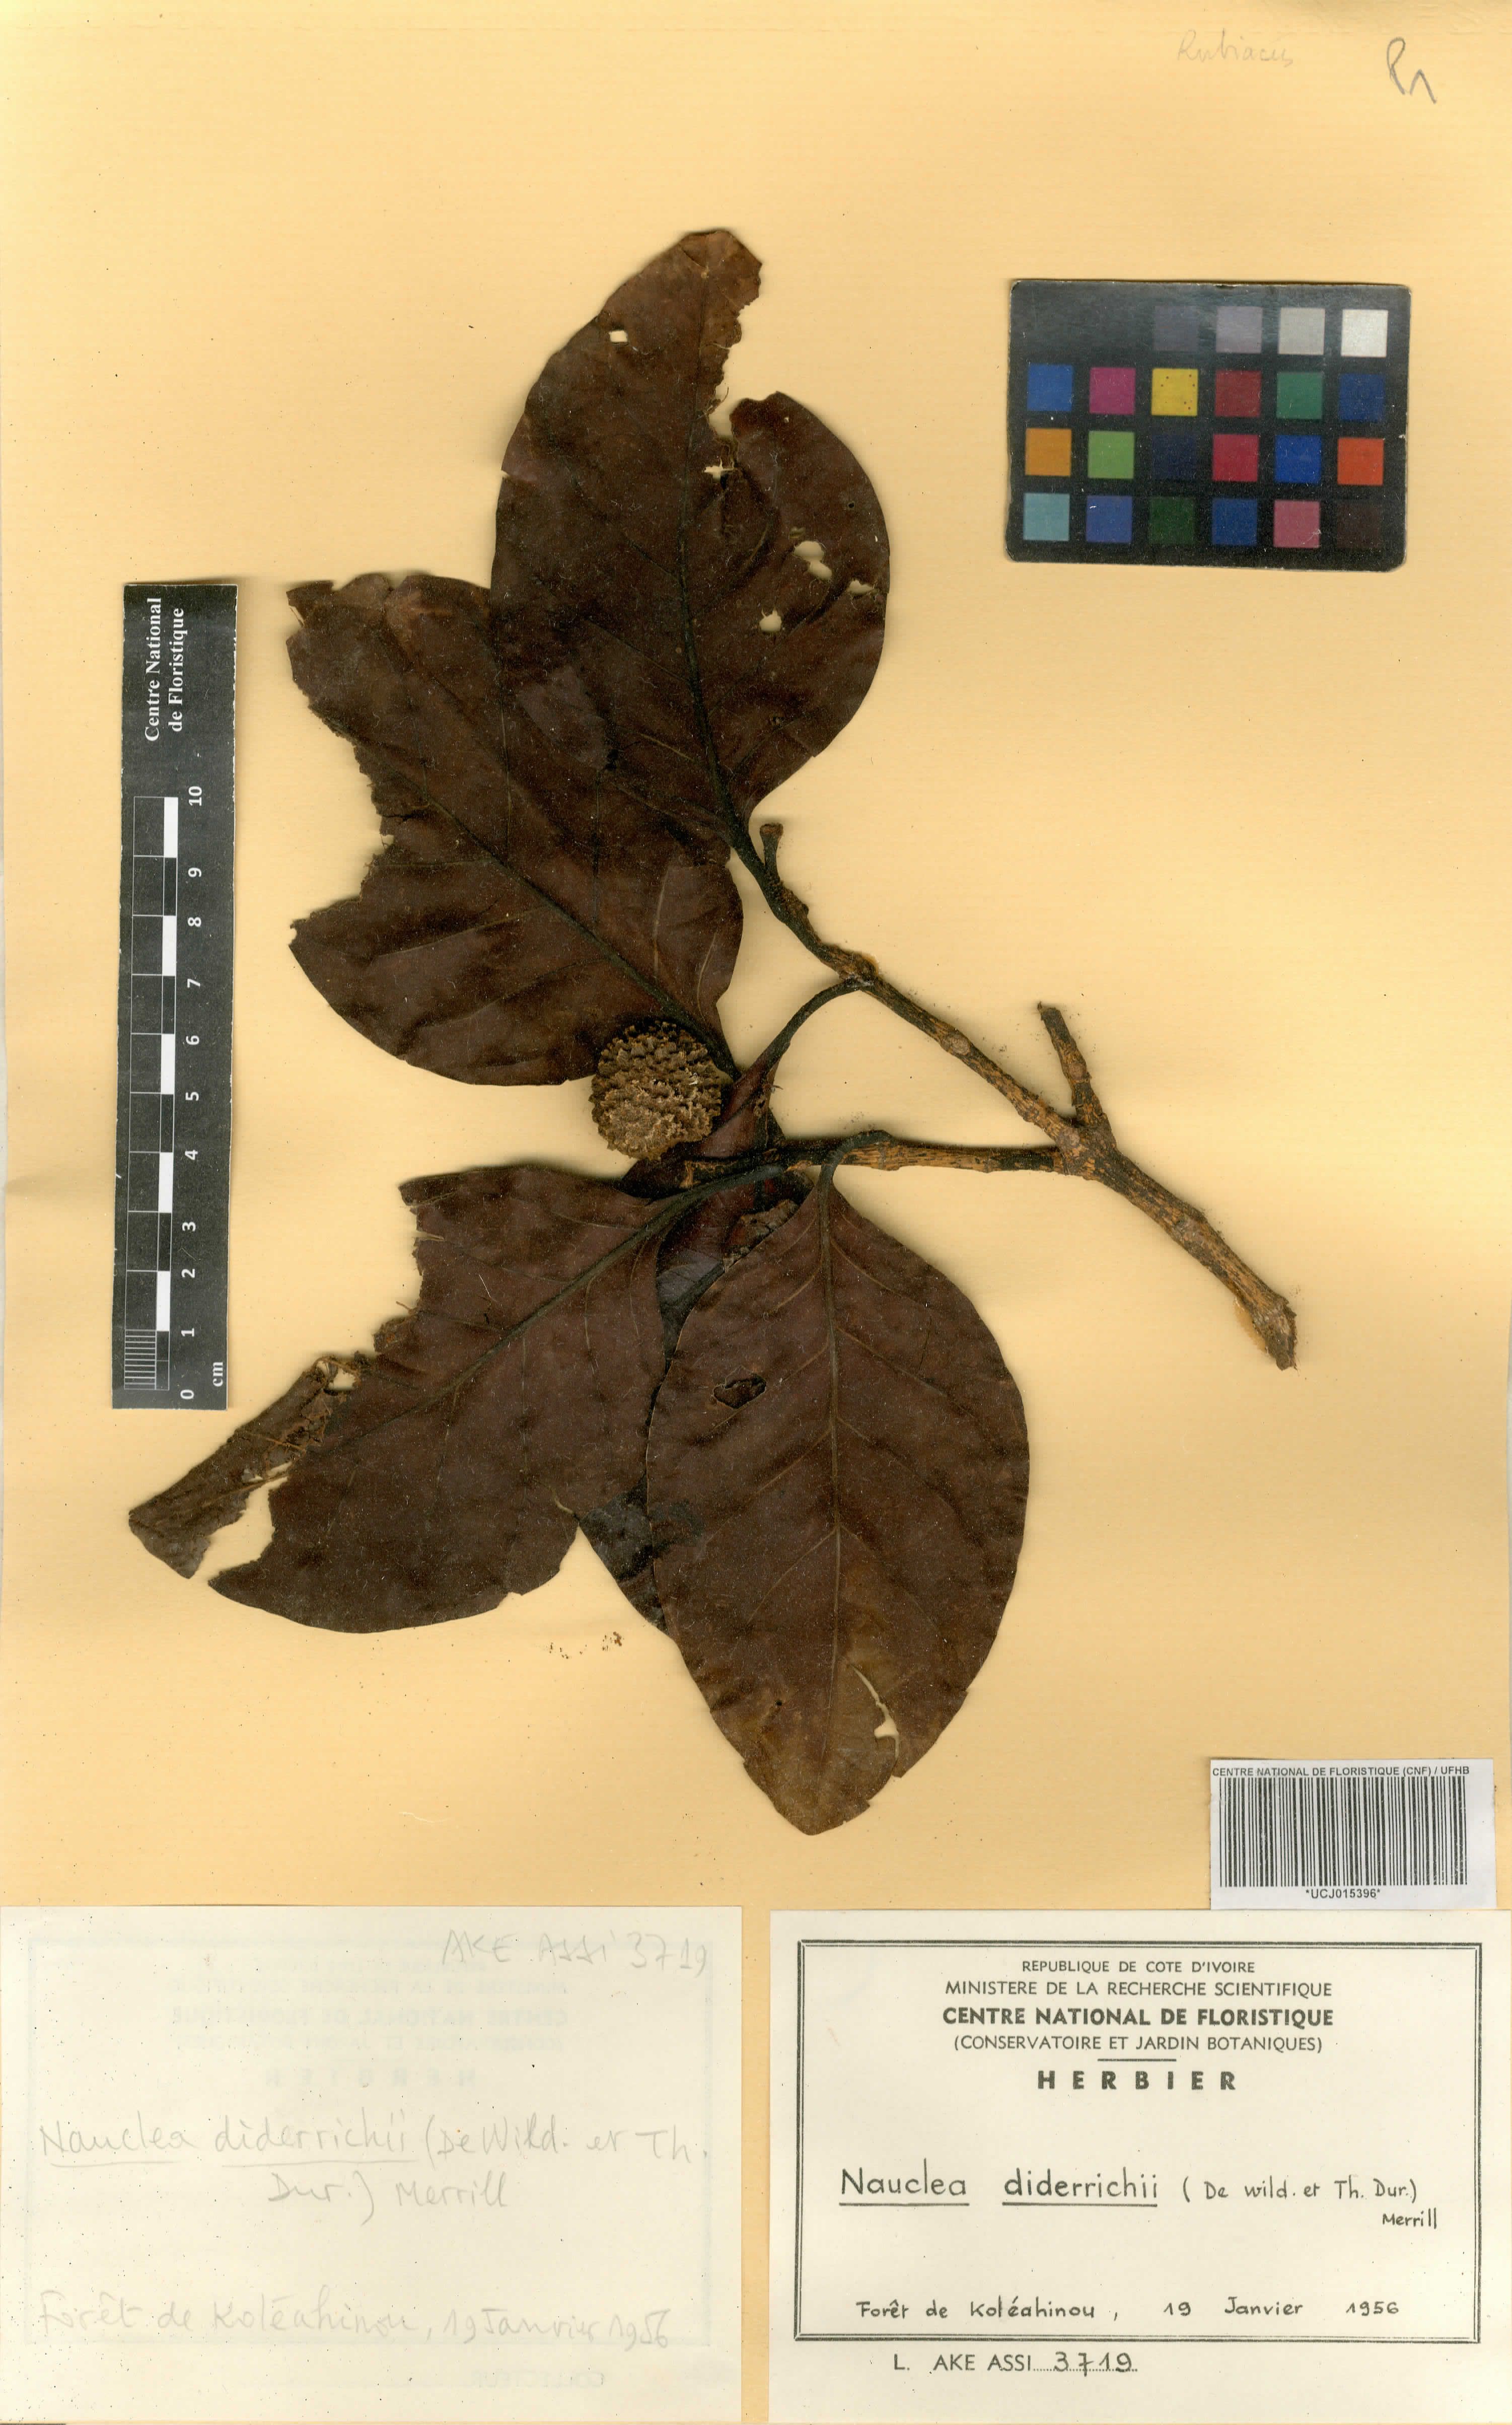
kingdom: Plantae
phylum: Tracheophyta
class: Magnoliopsida
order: Gentianales
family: Rubiaceae
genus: Nauclea
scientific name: Nauclea diderrichii
